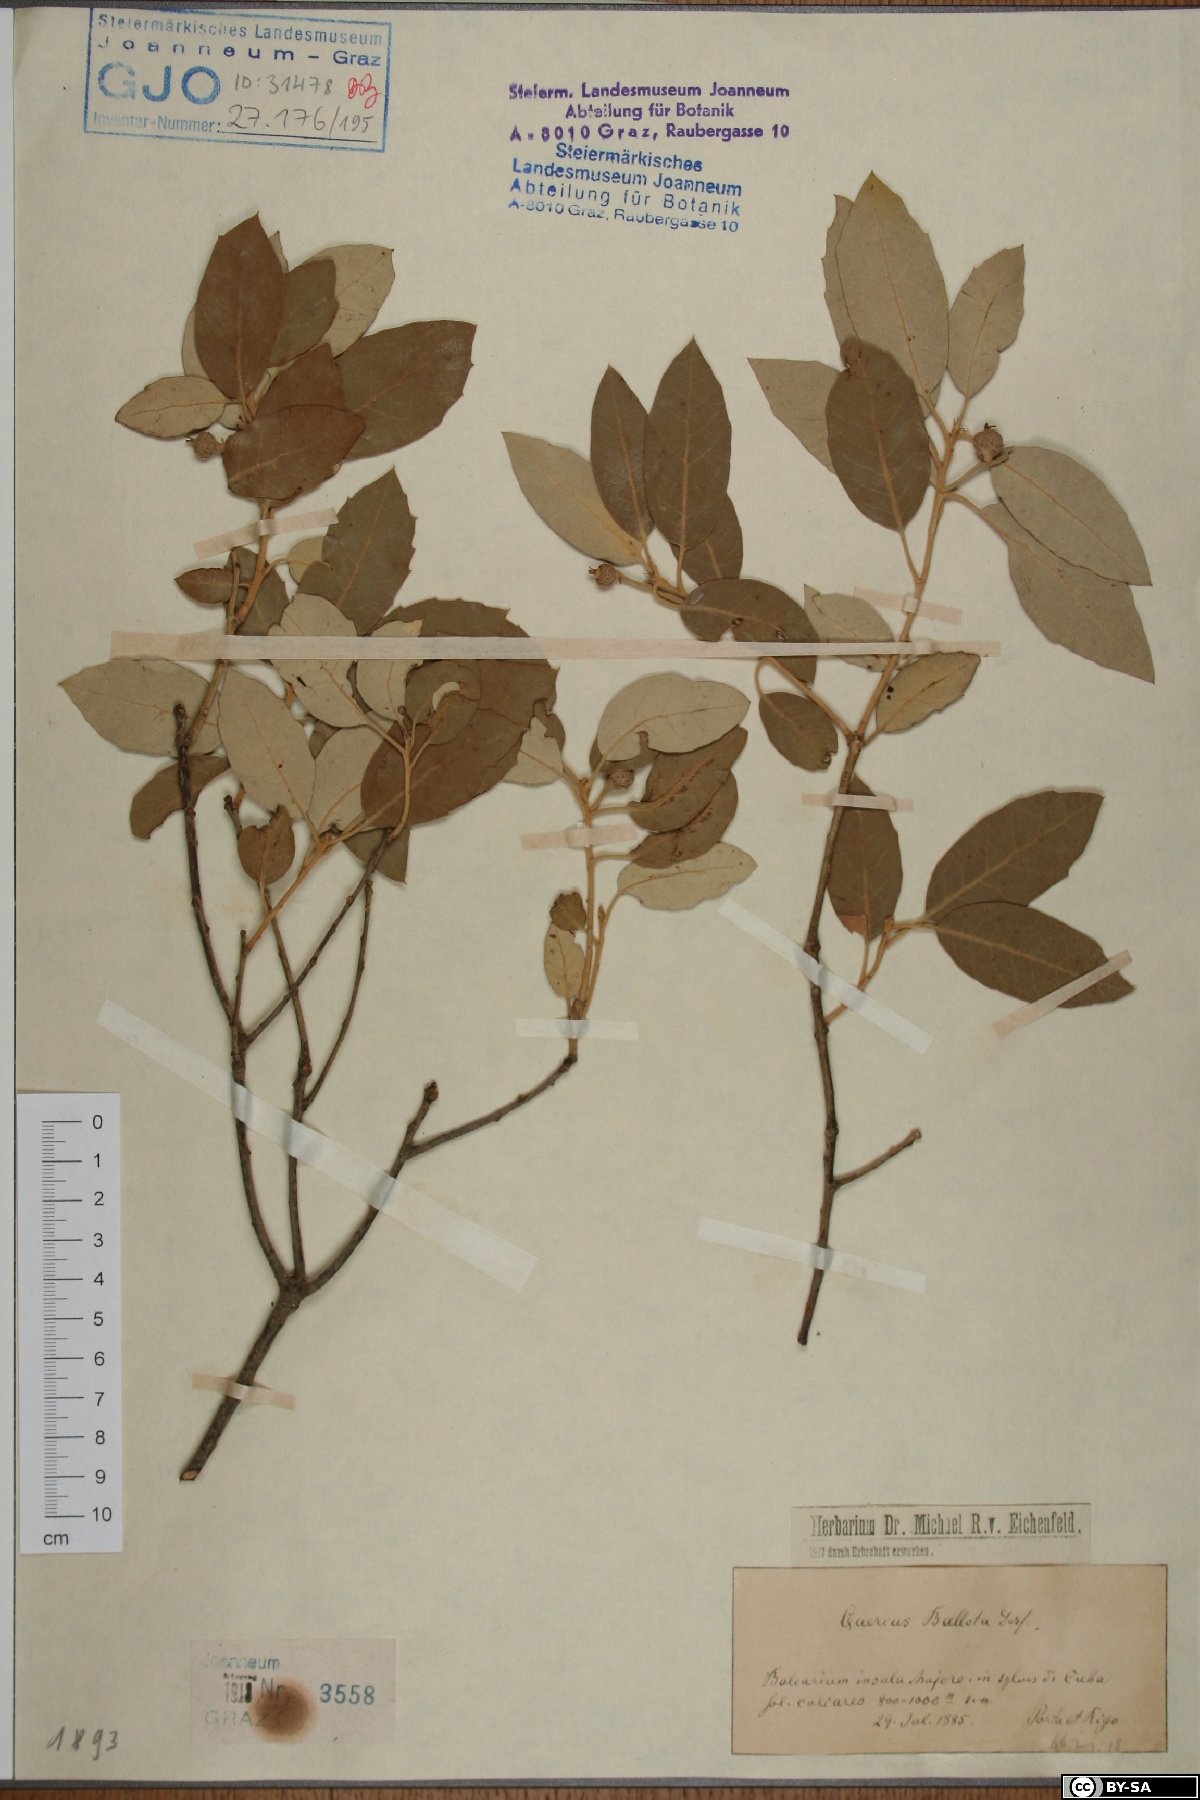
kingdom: Plantae
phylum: Tracheophyta
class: Magnoliopsida
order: Fagales
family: Fagaceae
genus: Quercus
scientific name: Quercus rotundifolia
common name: Holm oak
